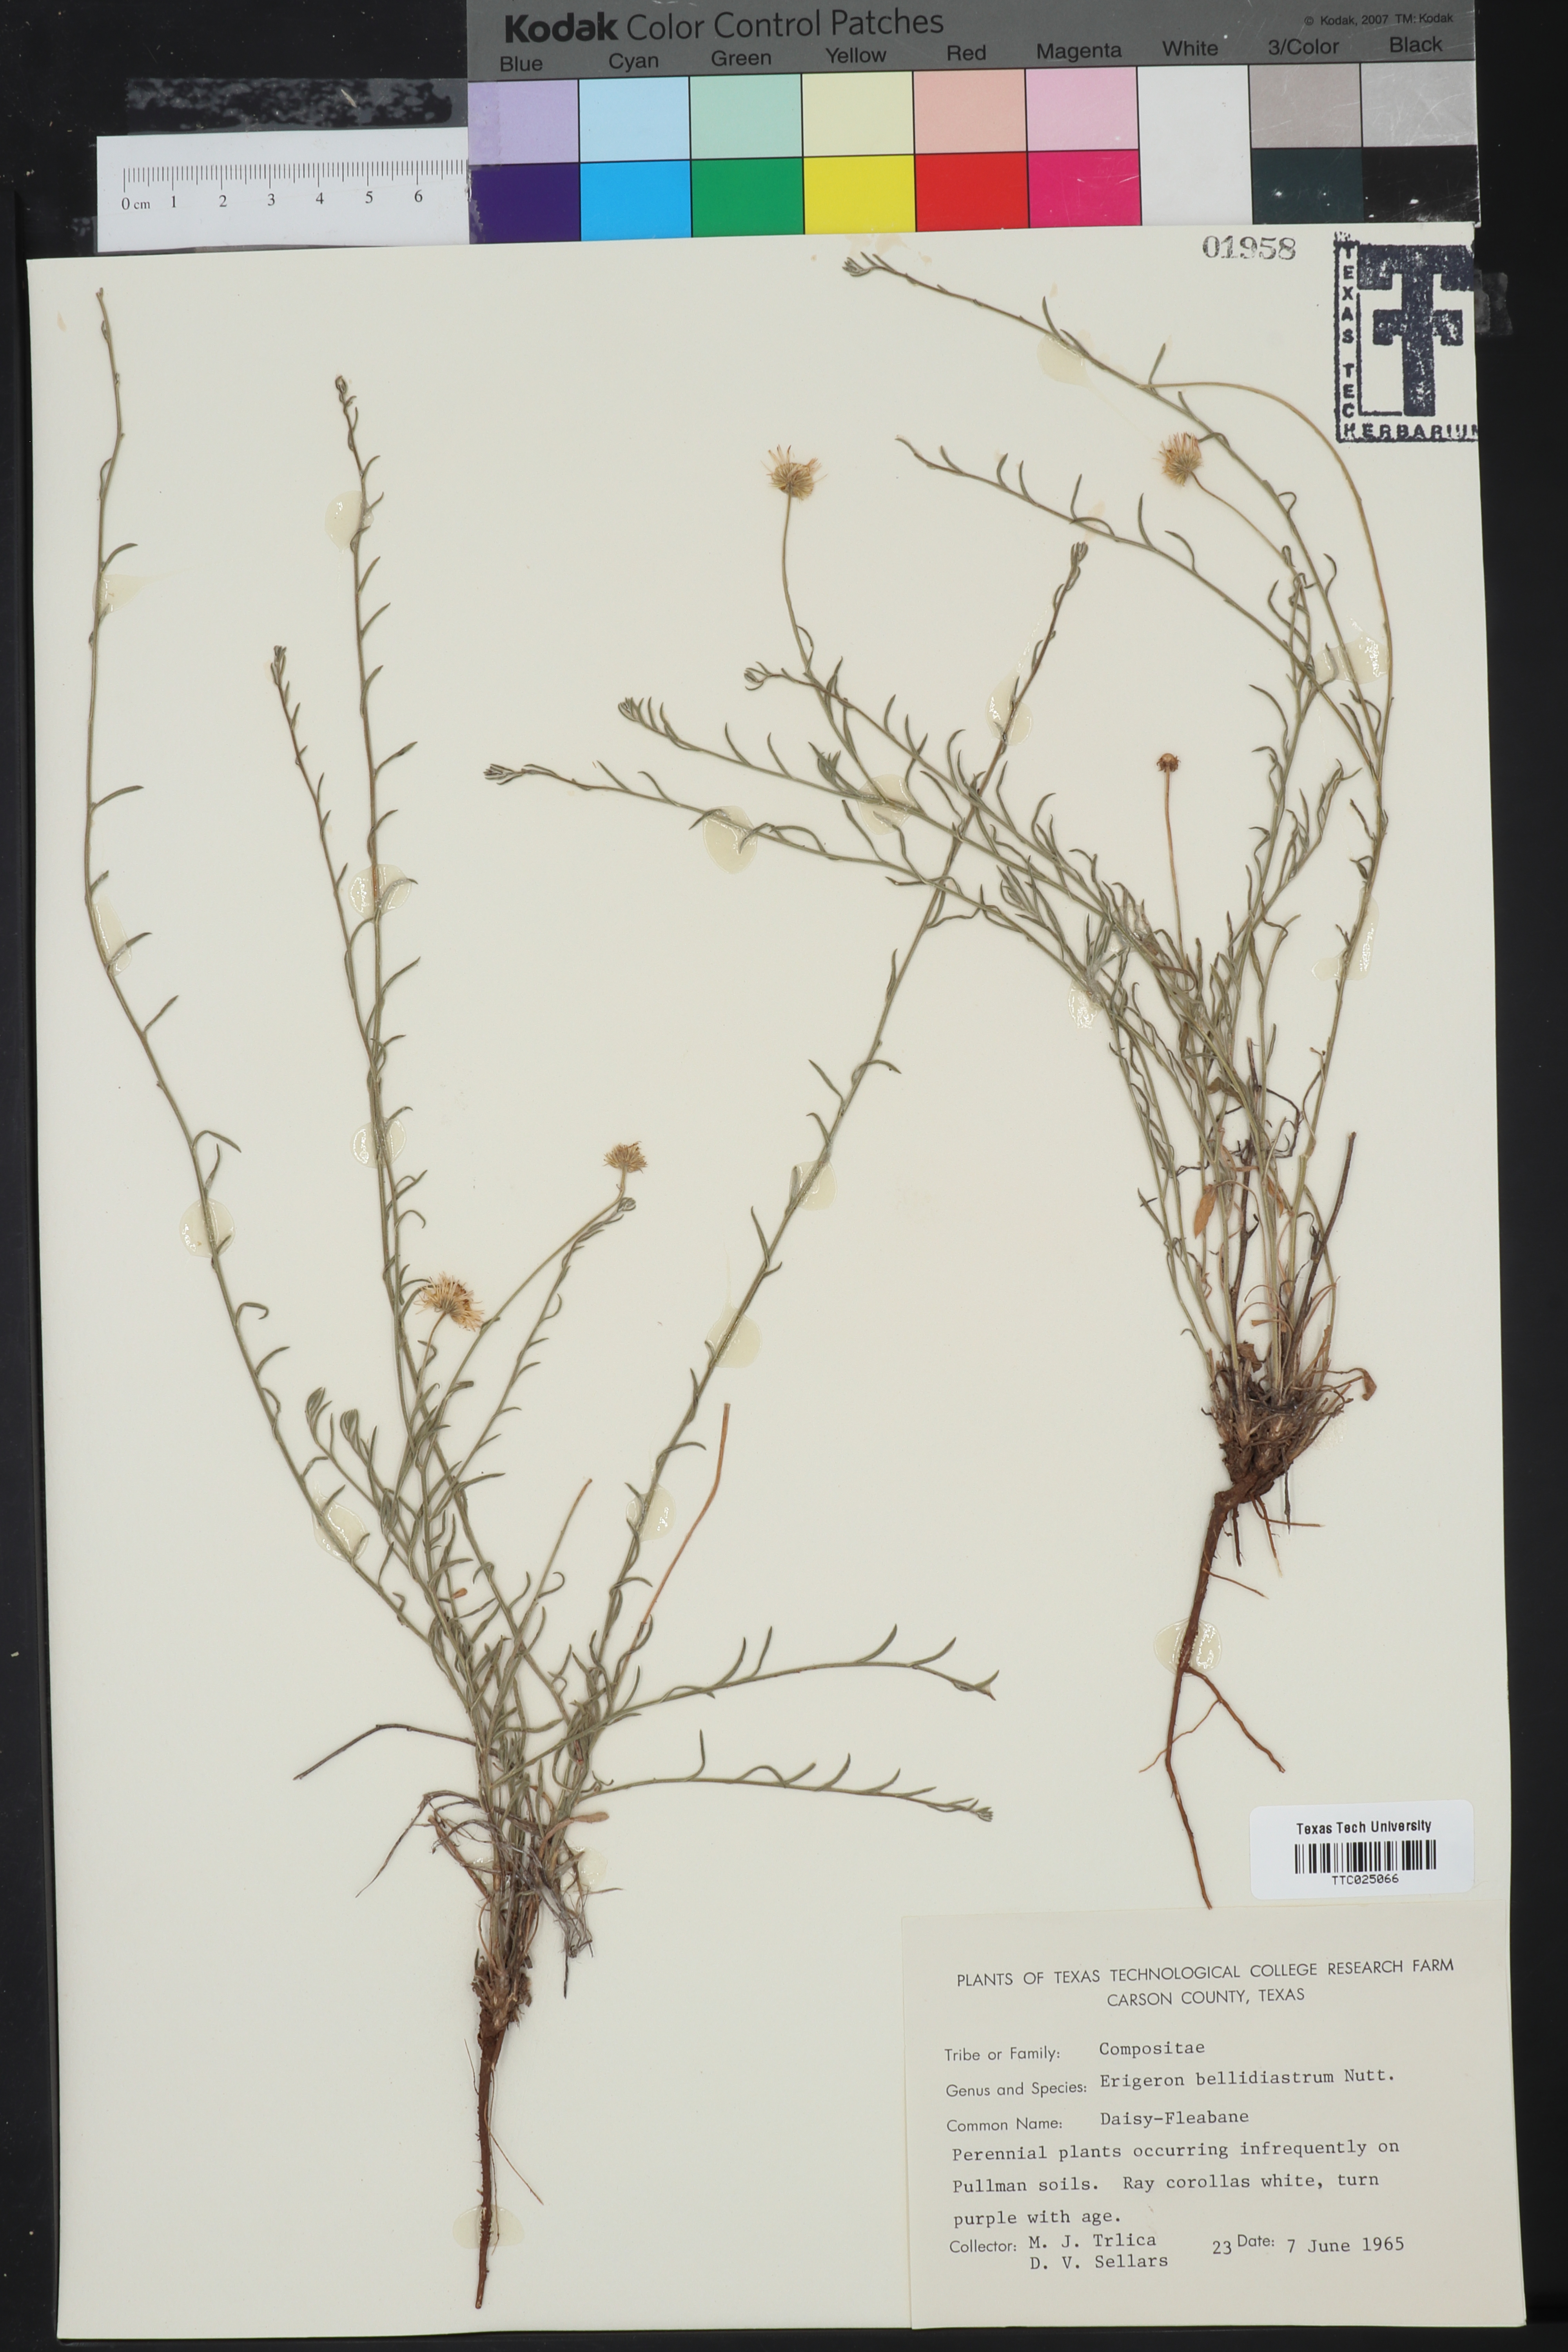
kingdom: Plantae
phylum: Tracheophyta
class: Magnoliopsida
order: Asterales
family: Asteraceae
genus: Erigeron
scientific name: Erigeron bellidiastrum
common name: Sand fleabane
